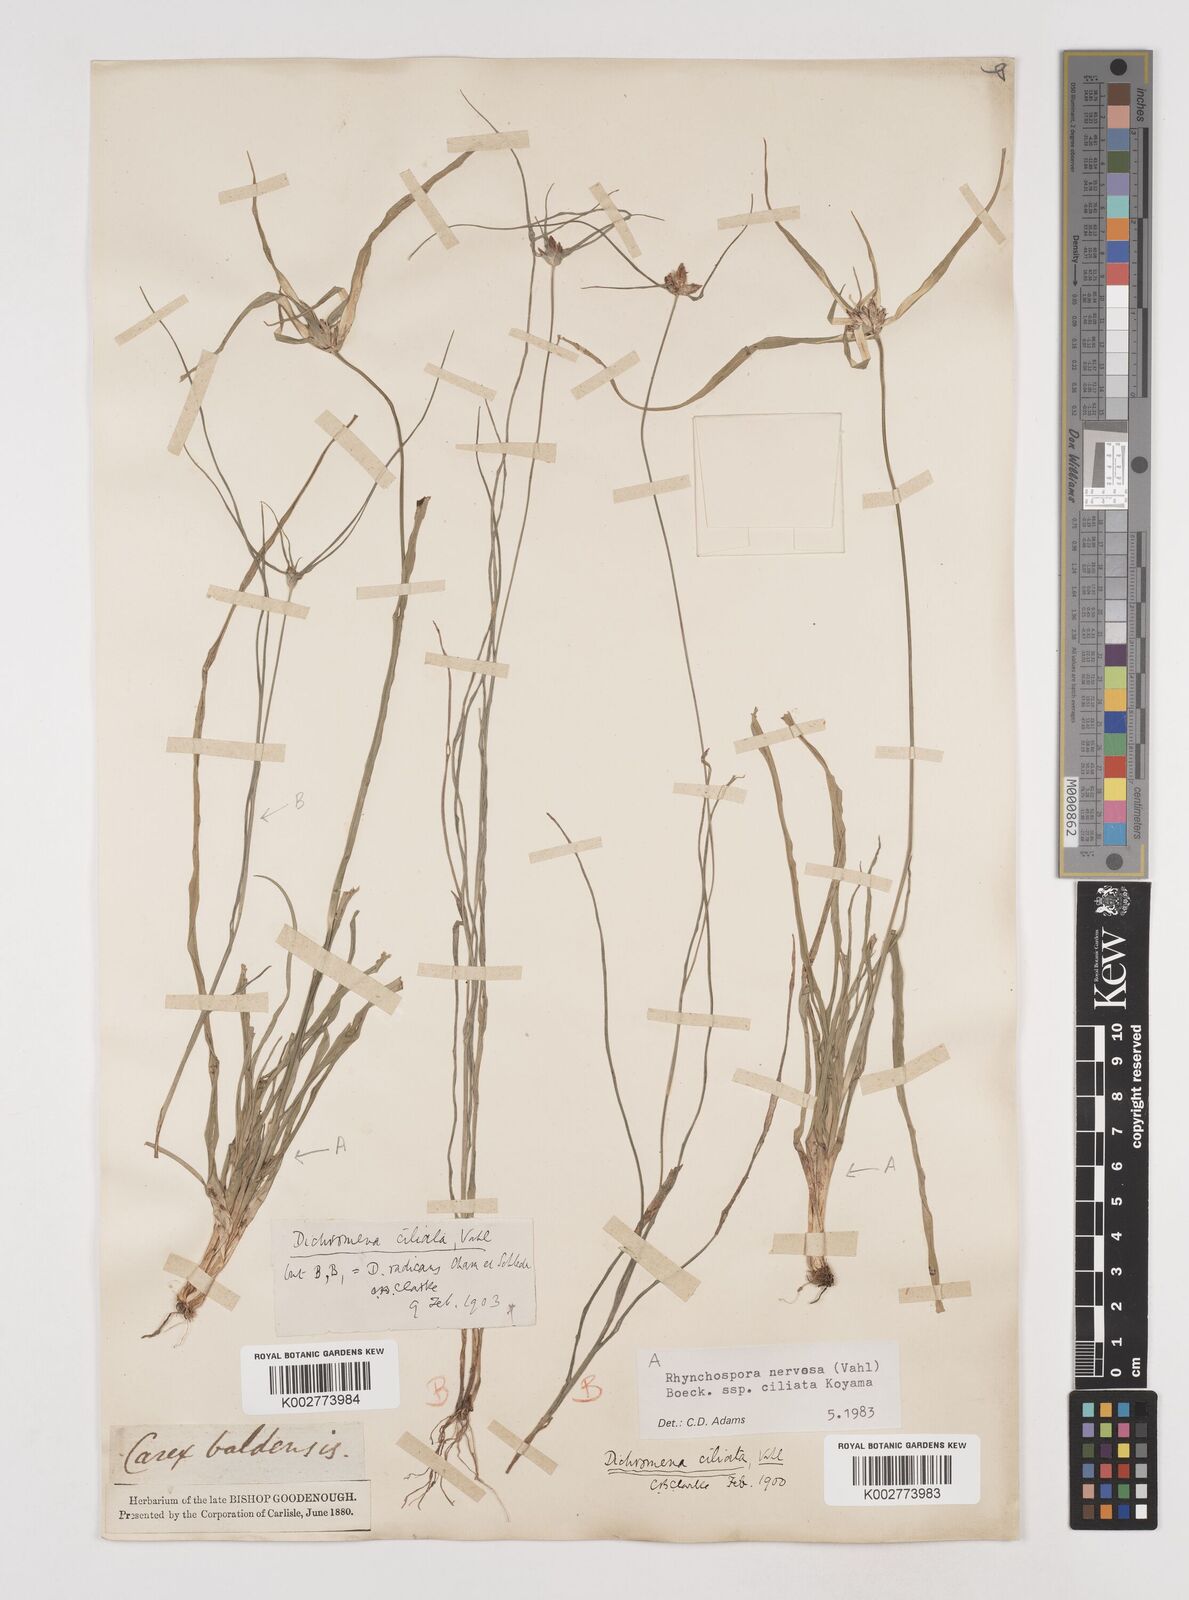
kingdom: Plantae
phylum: Tracheophyta
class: Liliopsida
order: Poales
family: Cyperaceae
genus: Rhynchospora
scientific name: Rhynchospora pura
